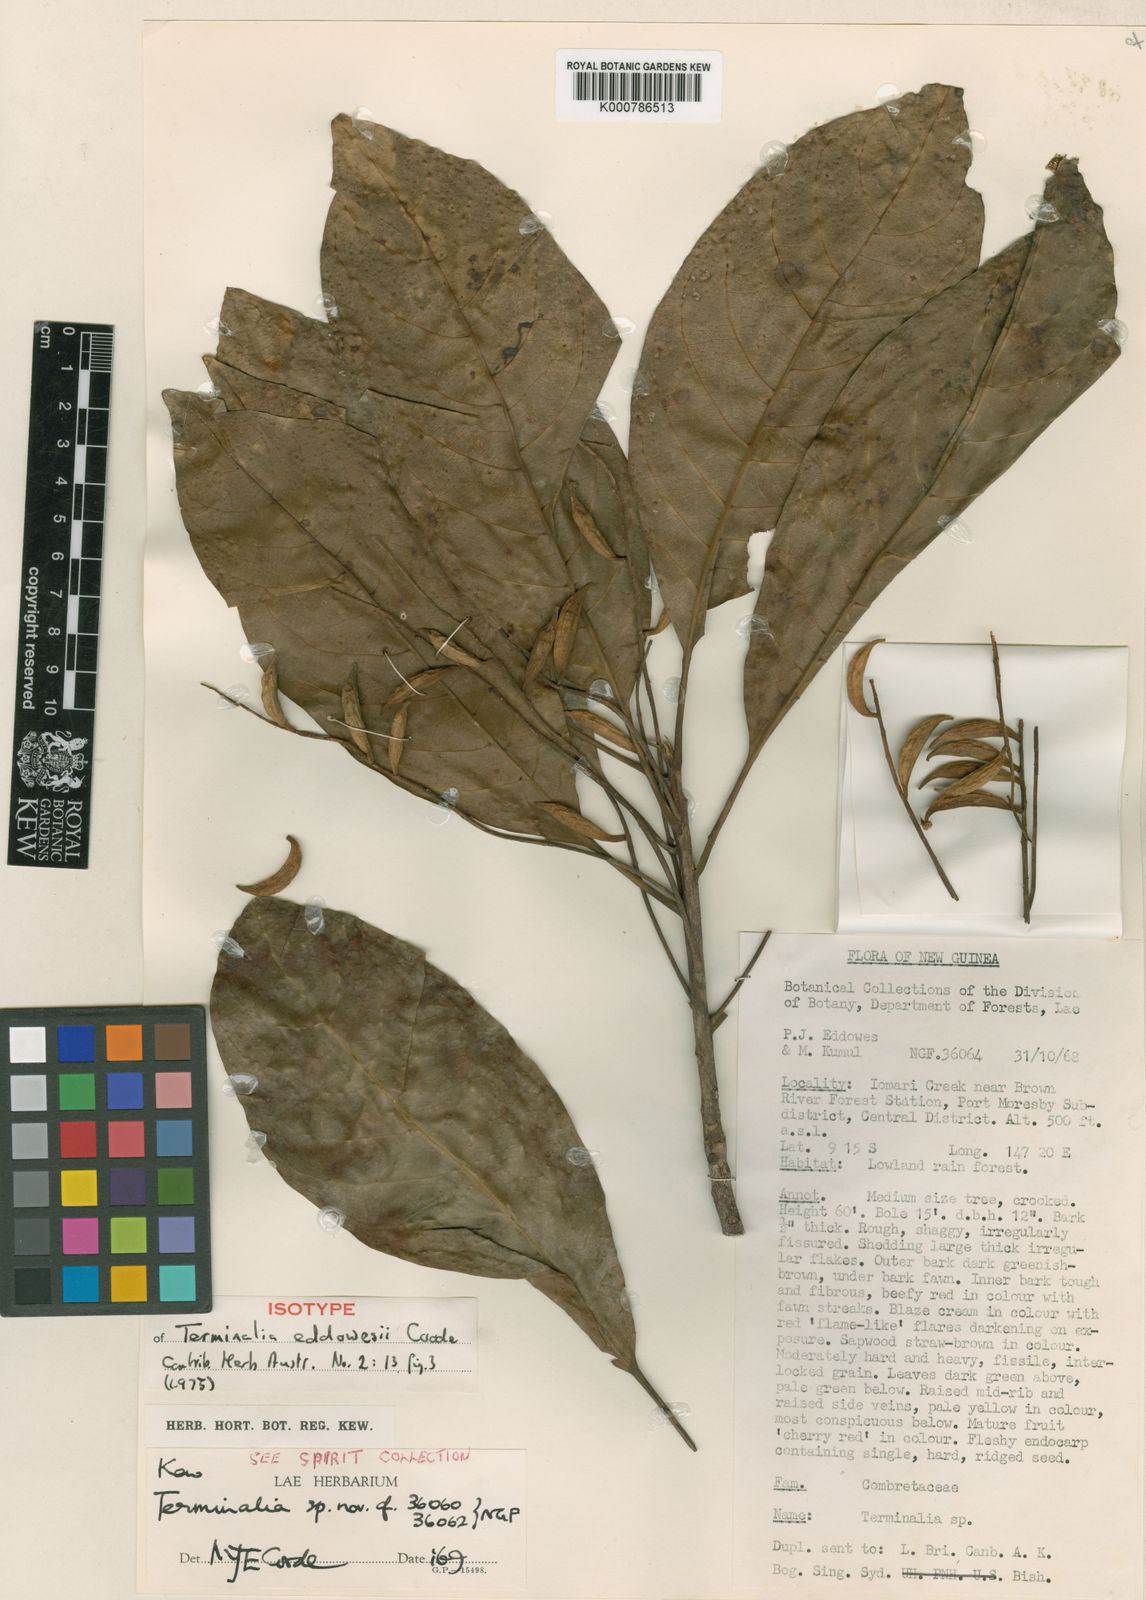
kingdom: Plantae
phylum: Tracheophyta
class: Magnoliopsida
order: Myrtales
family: Combretaceae
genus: Terminalia
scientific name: Terminalia eddowesii
